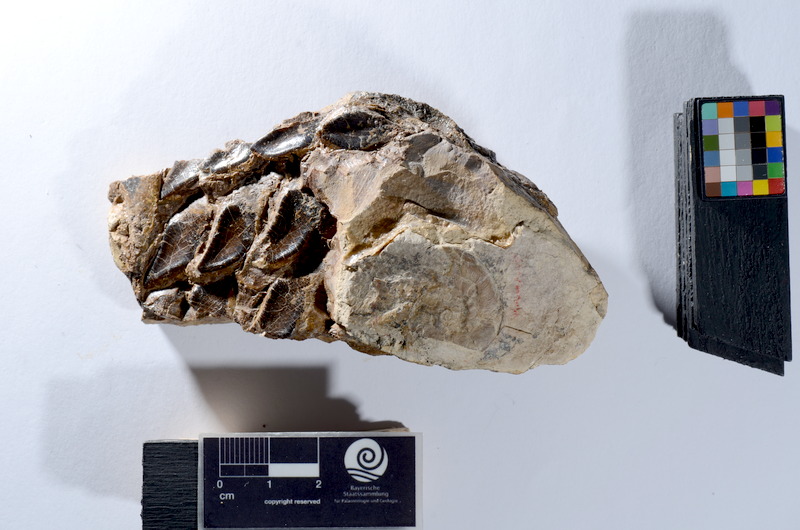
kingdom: Animalia
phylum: Chordata
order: Lepisosteiformes
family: Lepidotidae
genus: Lepidotes
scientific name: Lepidotes
